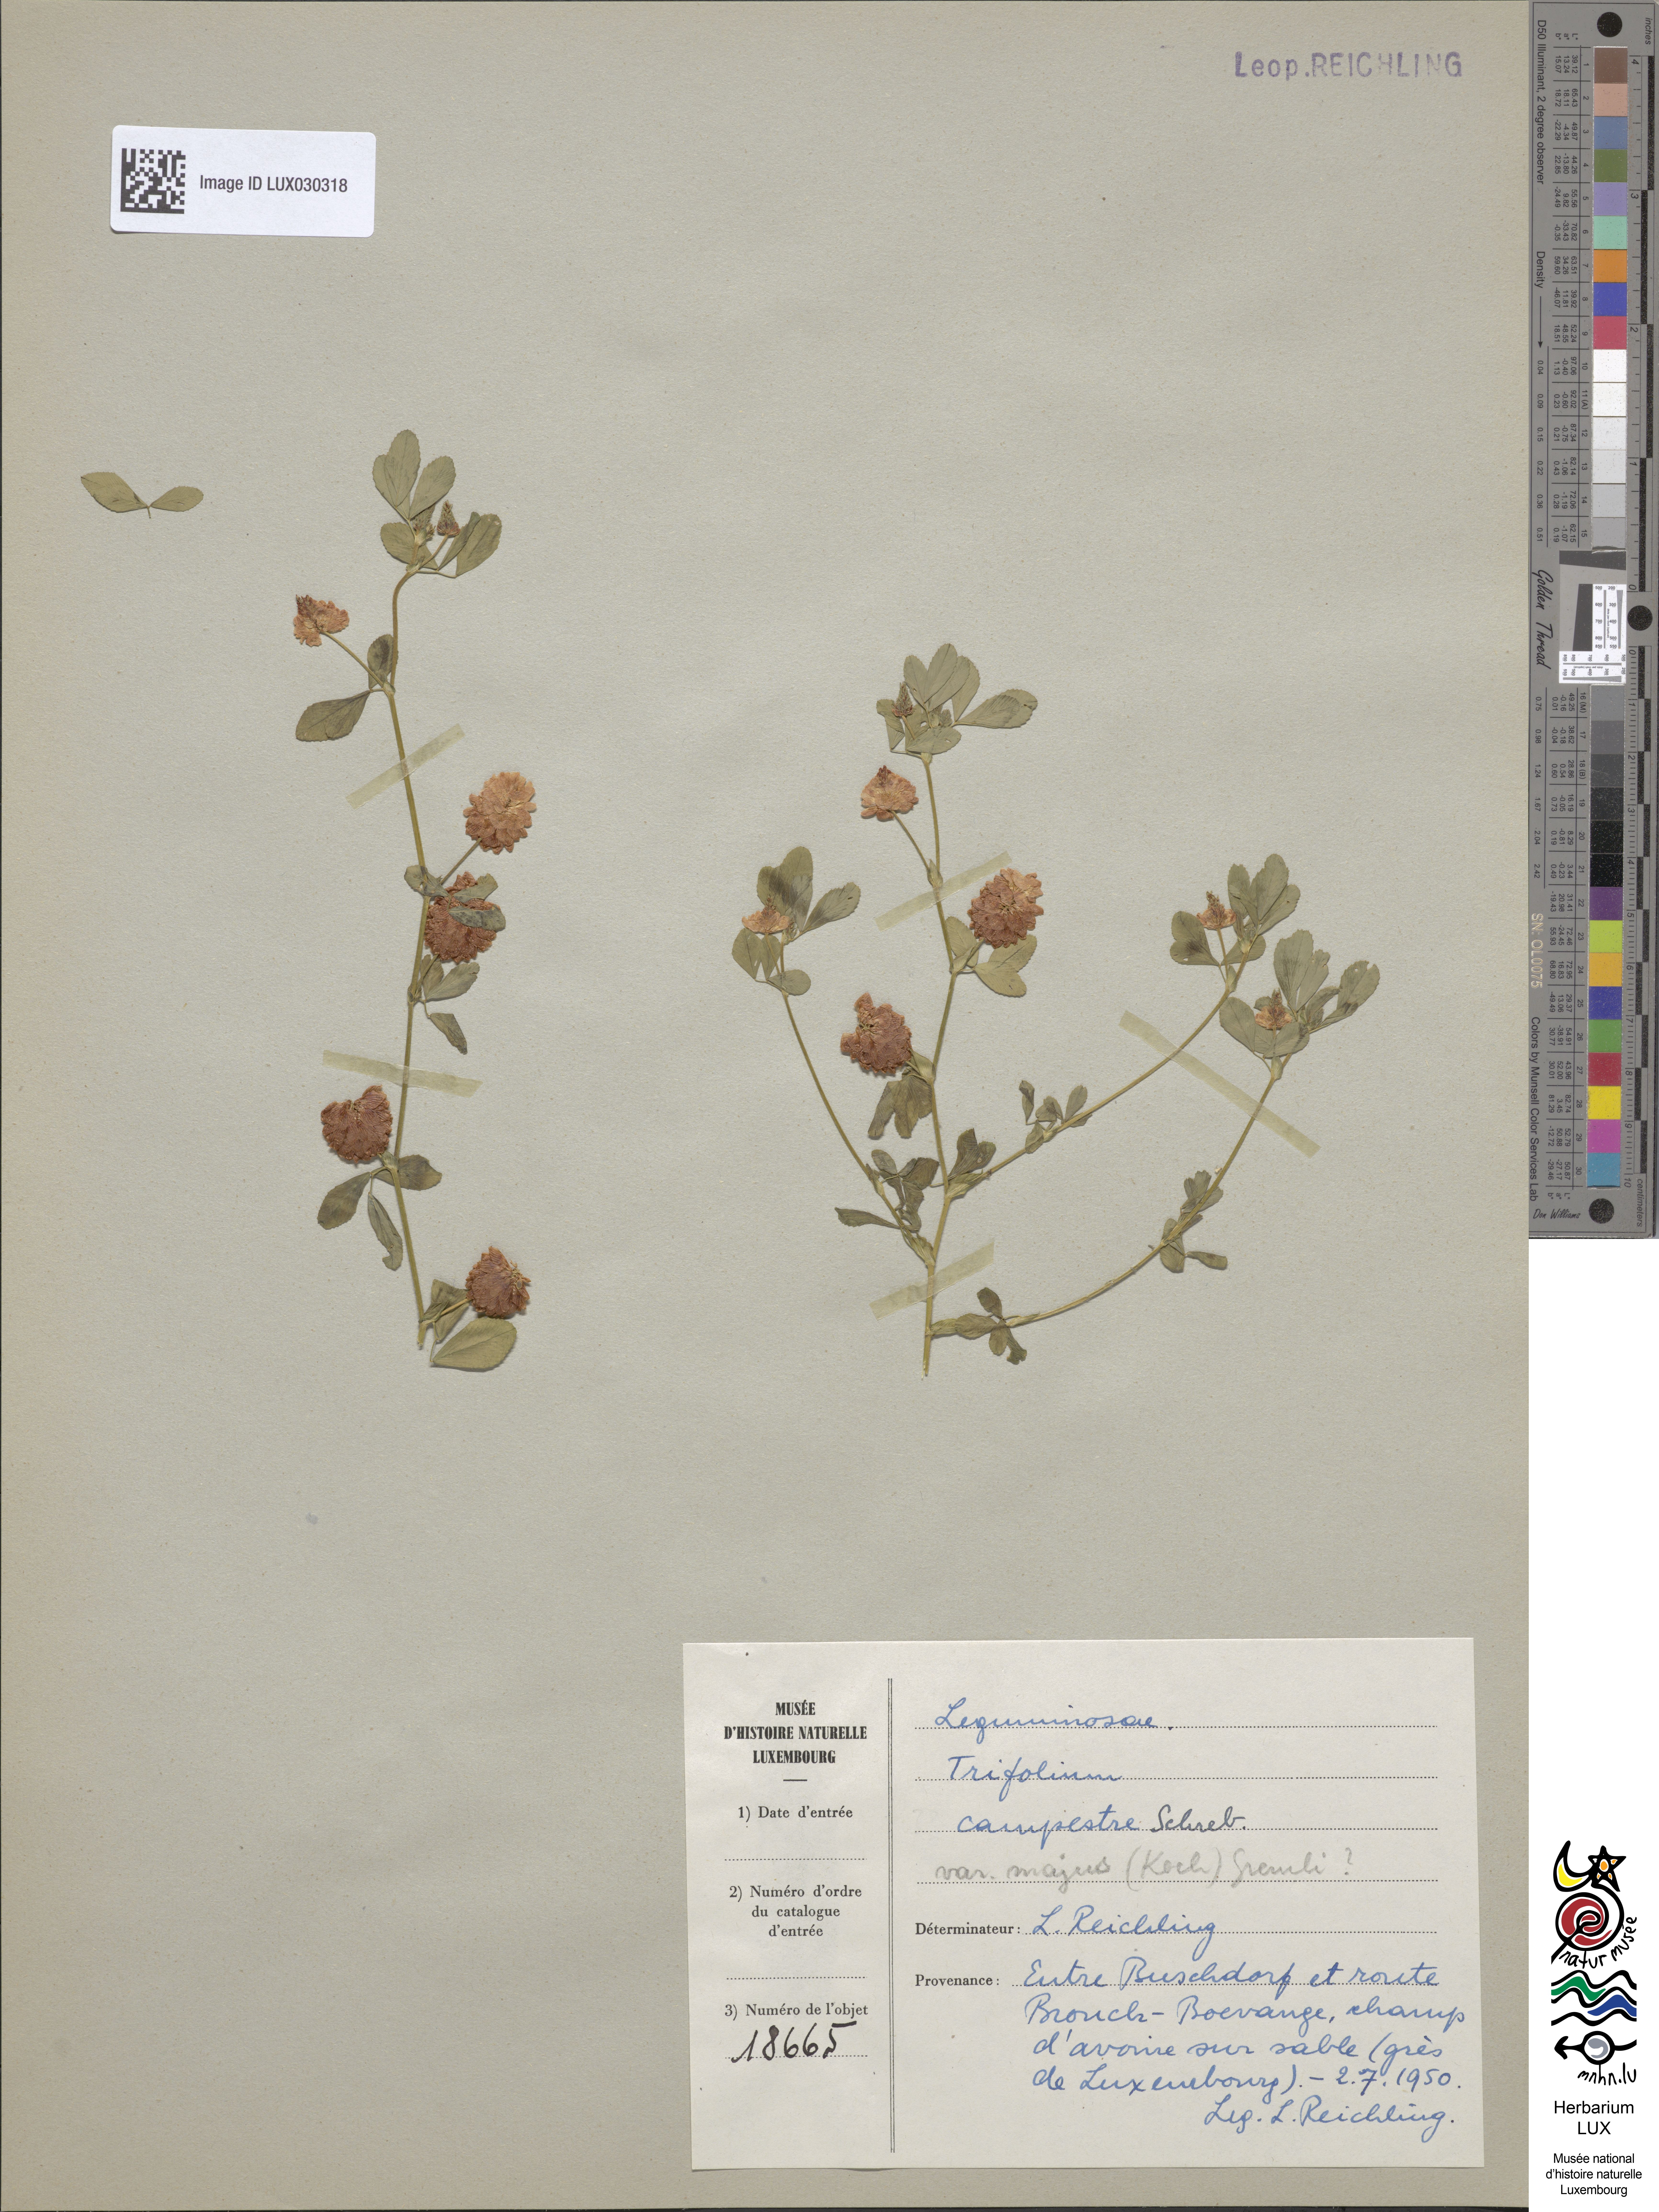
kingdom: Plantae
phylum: Tracheophyta
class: Magnoliopsida
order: Fabales
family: Fabaceae
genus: Trifolium
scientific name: Trifolium campestre
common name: Field clover
